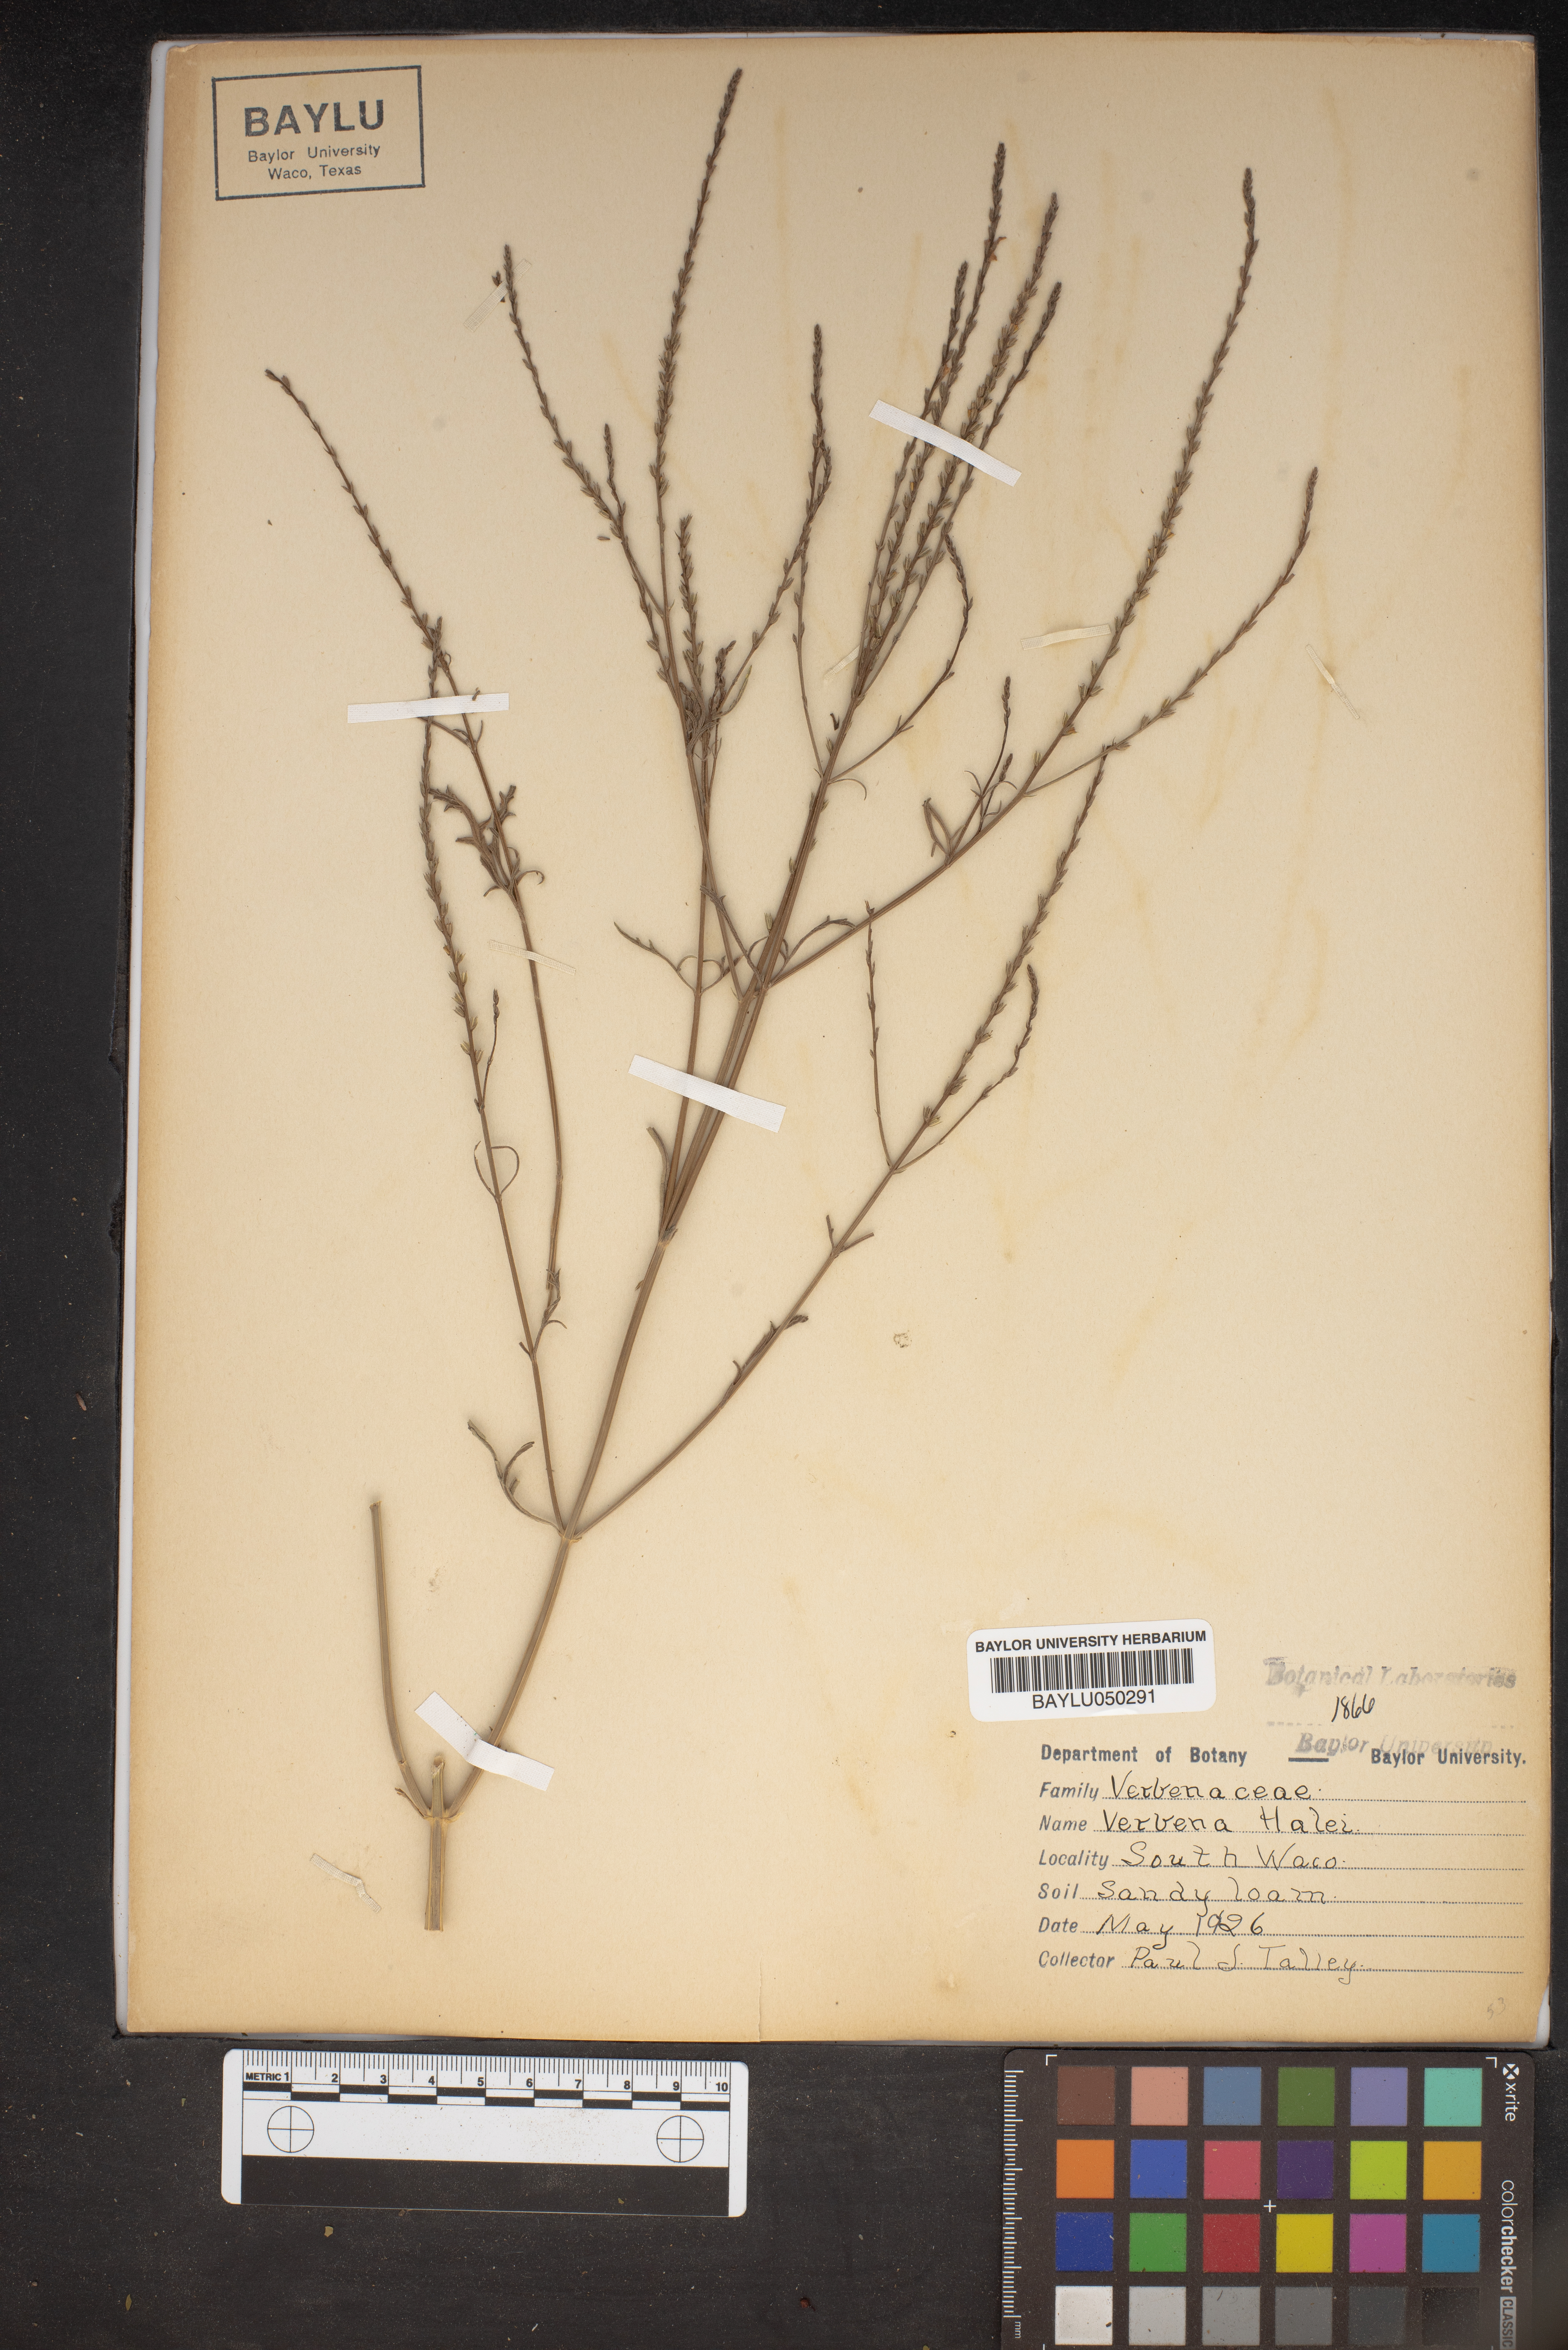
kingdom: Plantae
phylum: Tracheophyta
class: Magnoliopsida
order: Lamiales
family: Verbenaceae
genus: Verbena
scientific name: Verbena halei
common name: Texas vervain
